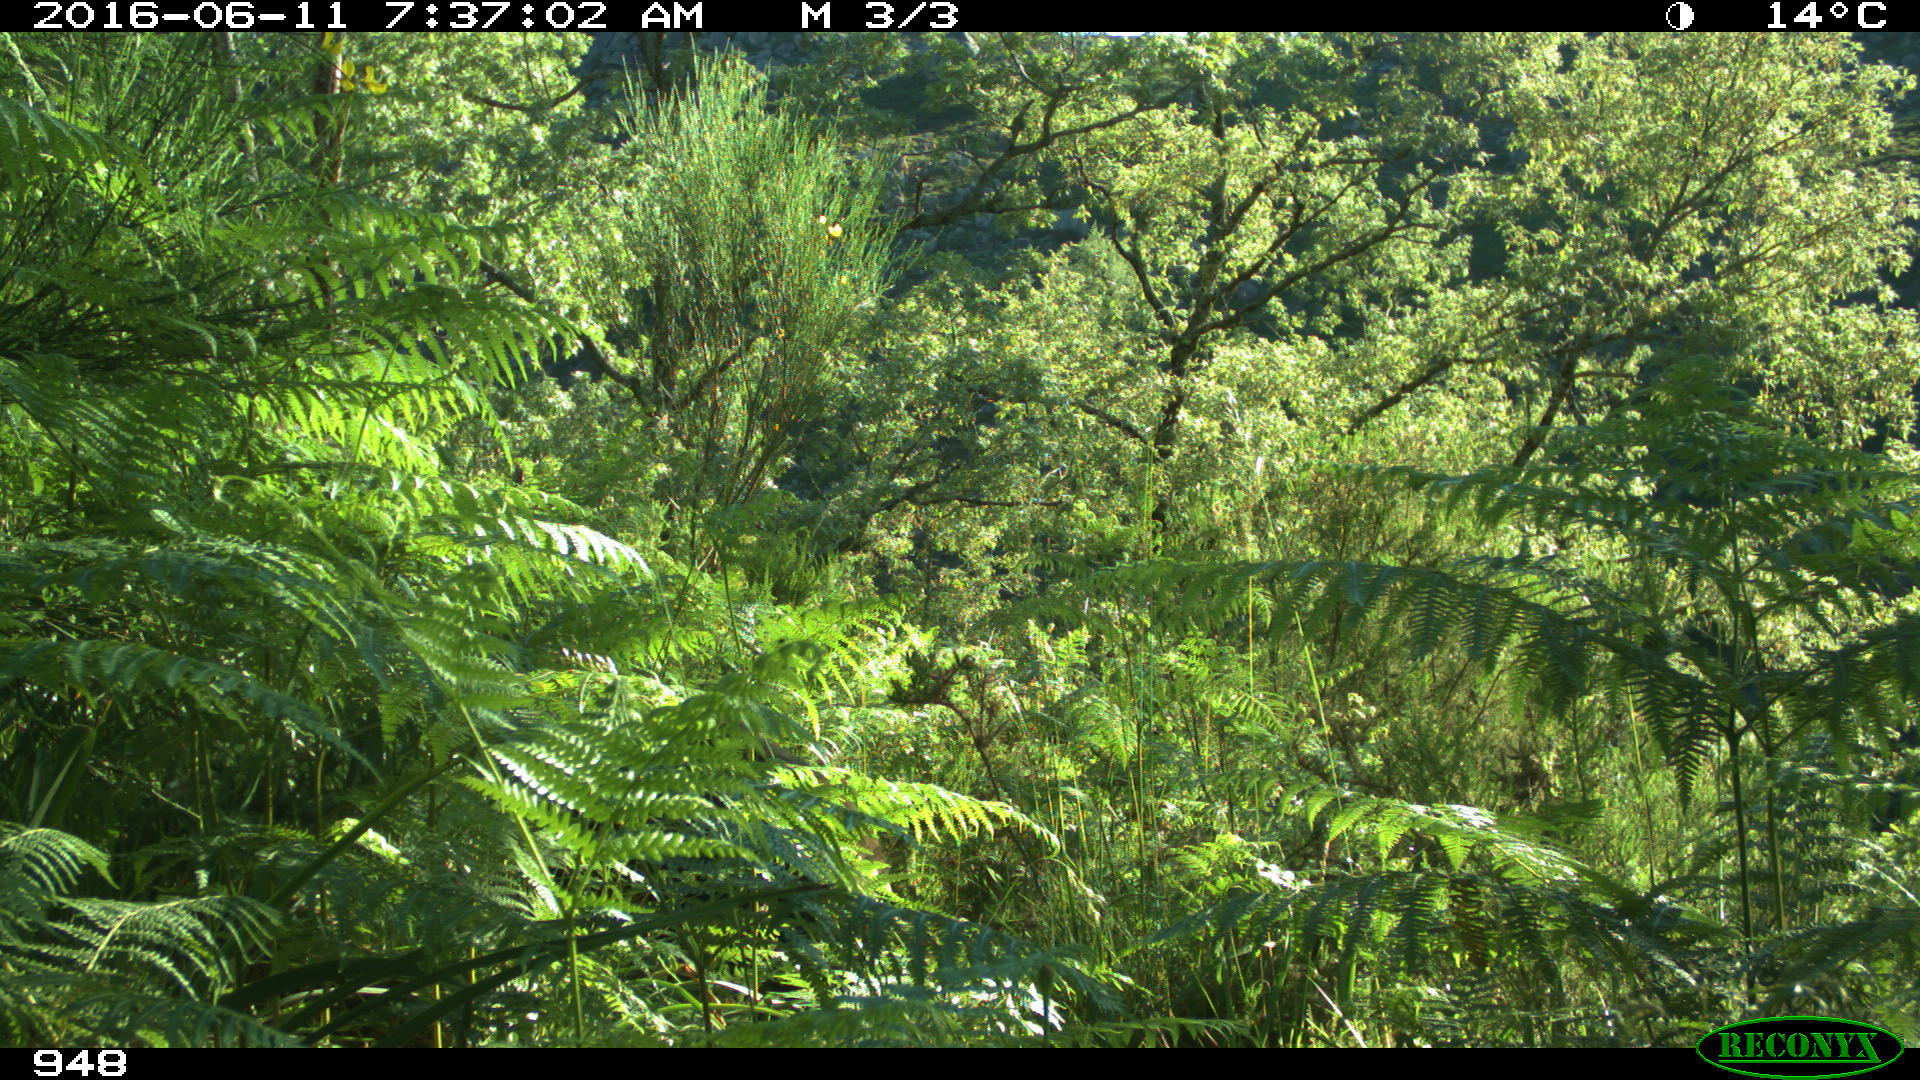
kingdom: Animalia
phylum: Chordata
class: Mammalia
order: Artiodactyla
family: Suidae
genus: Sus
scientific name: Sus scrofa
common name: Wild boar
